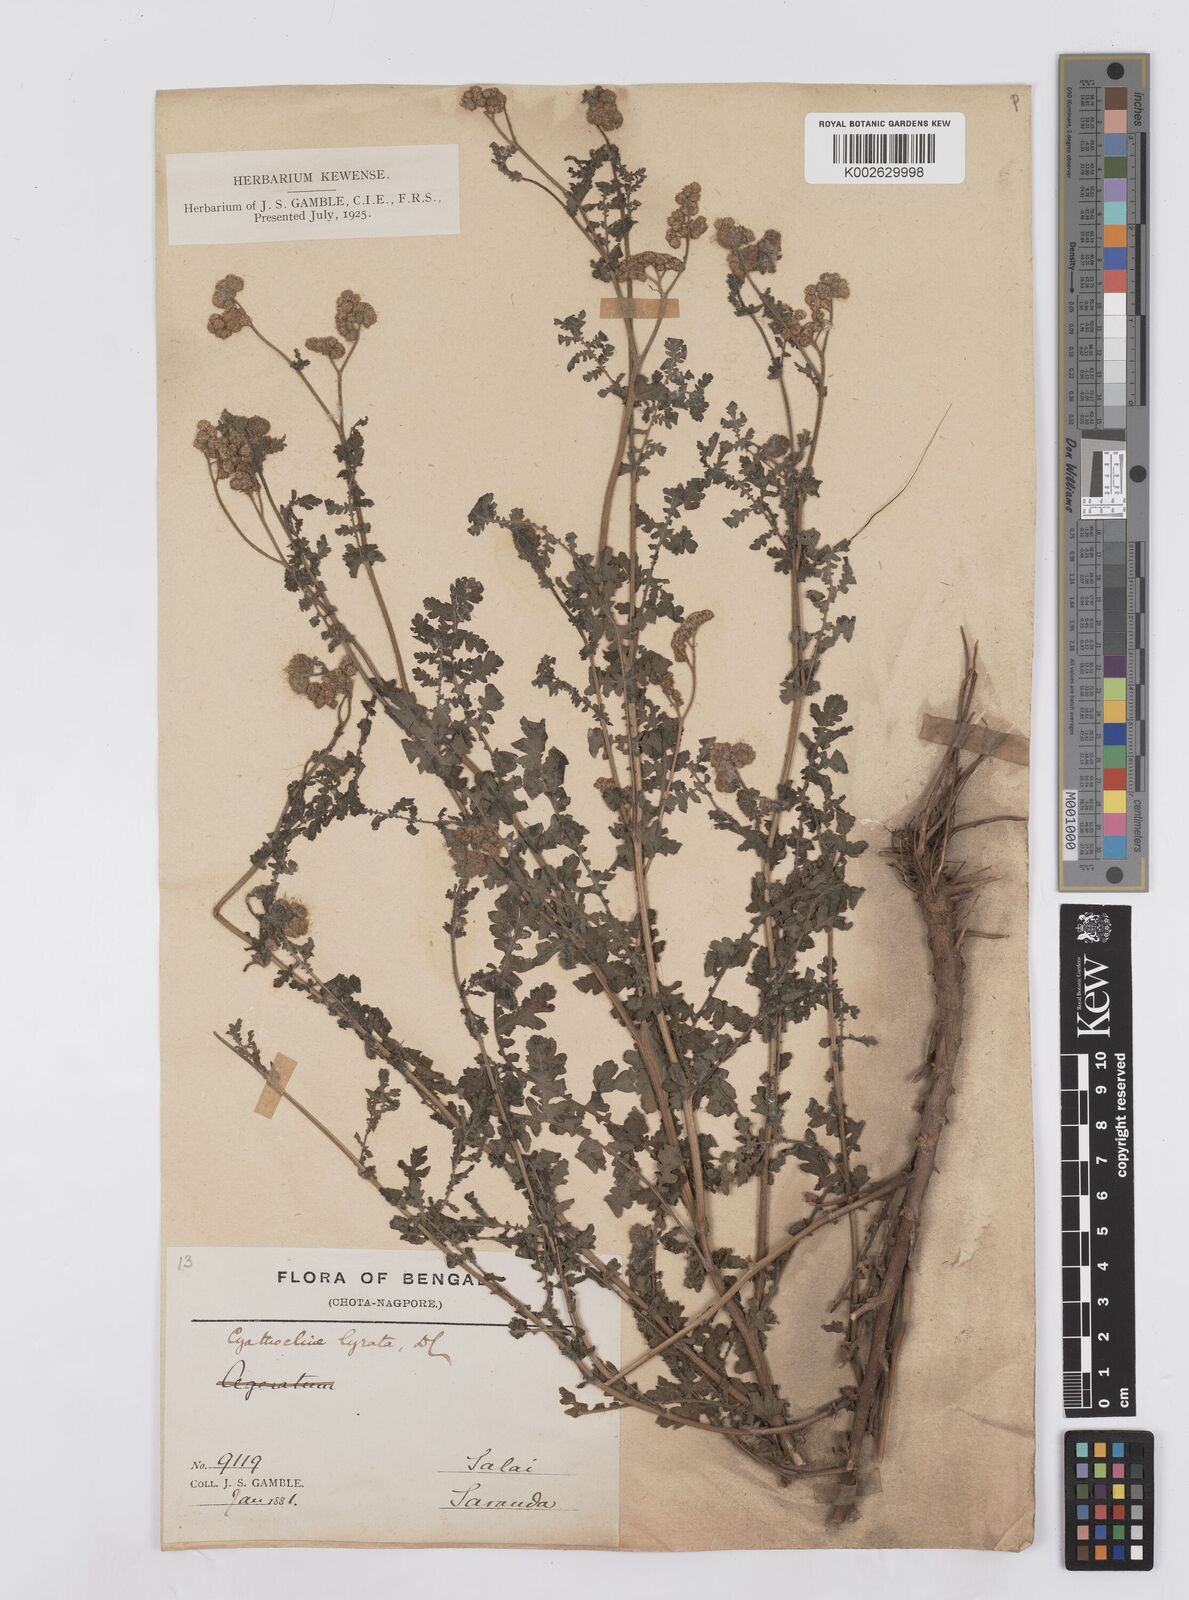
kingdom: Plantae
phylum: Tracheophyta
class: Magnoliopsida
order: Asterales
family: Asteraceae
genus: Cyathocline
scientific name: Cyathocline purpurea
